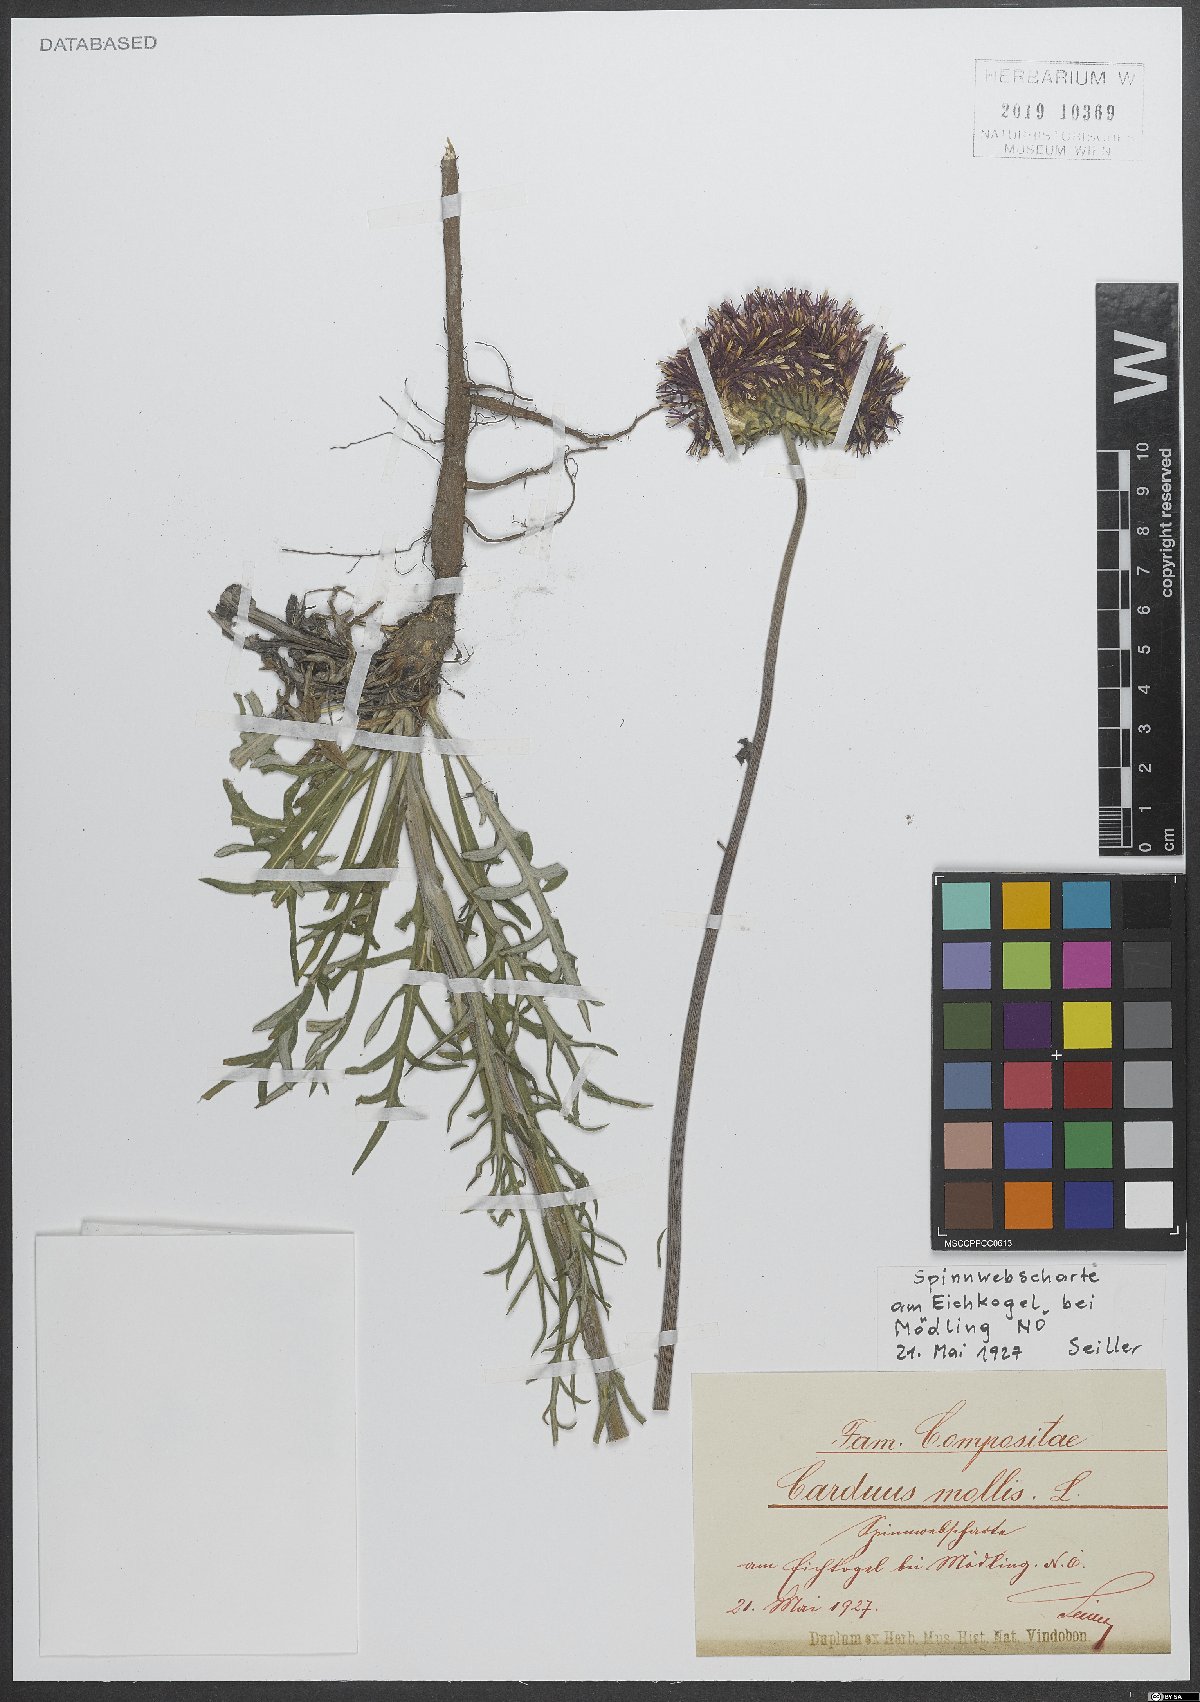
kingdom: Plantae
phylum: Tracheophyta
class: Magnoliopsida
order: Asterales
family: Asteraceae
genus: Jurinea
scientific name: Jurinea mollis
